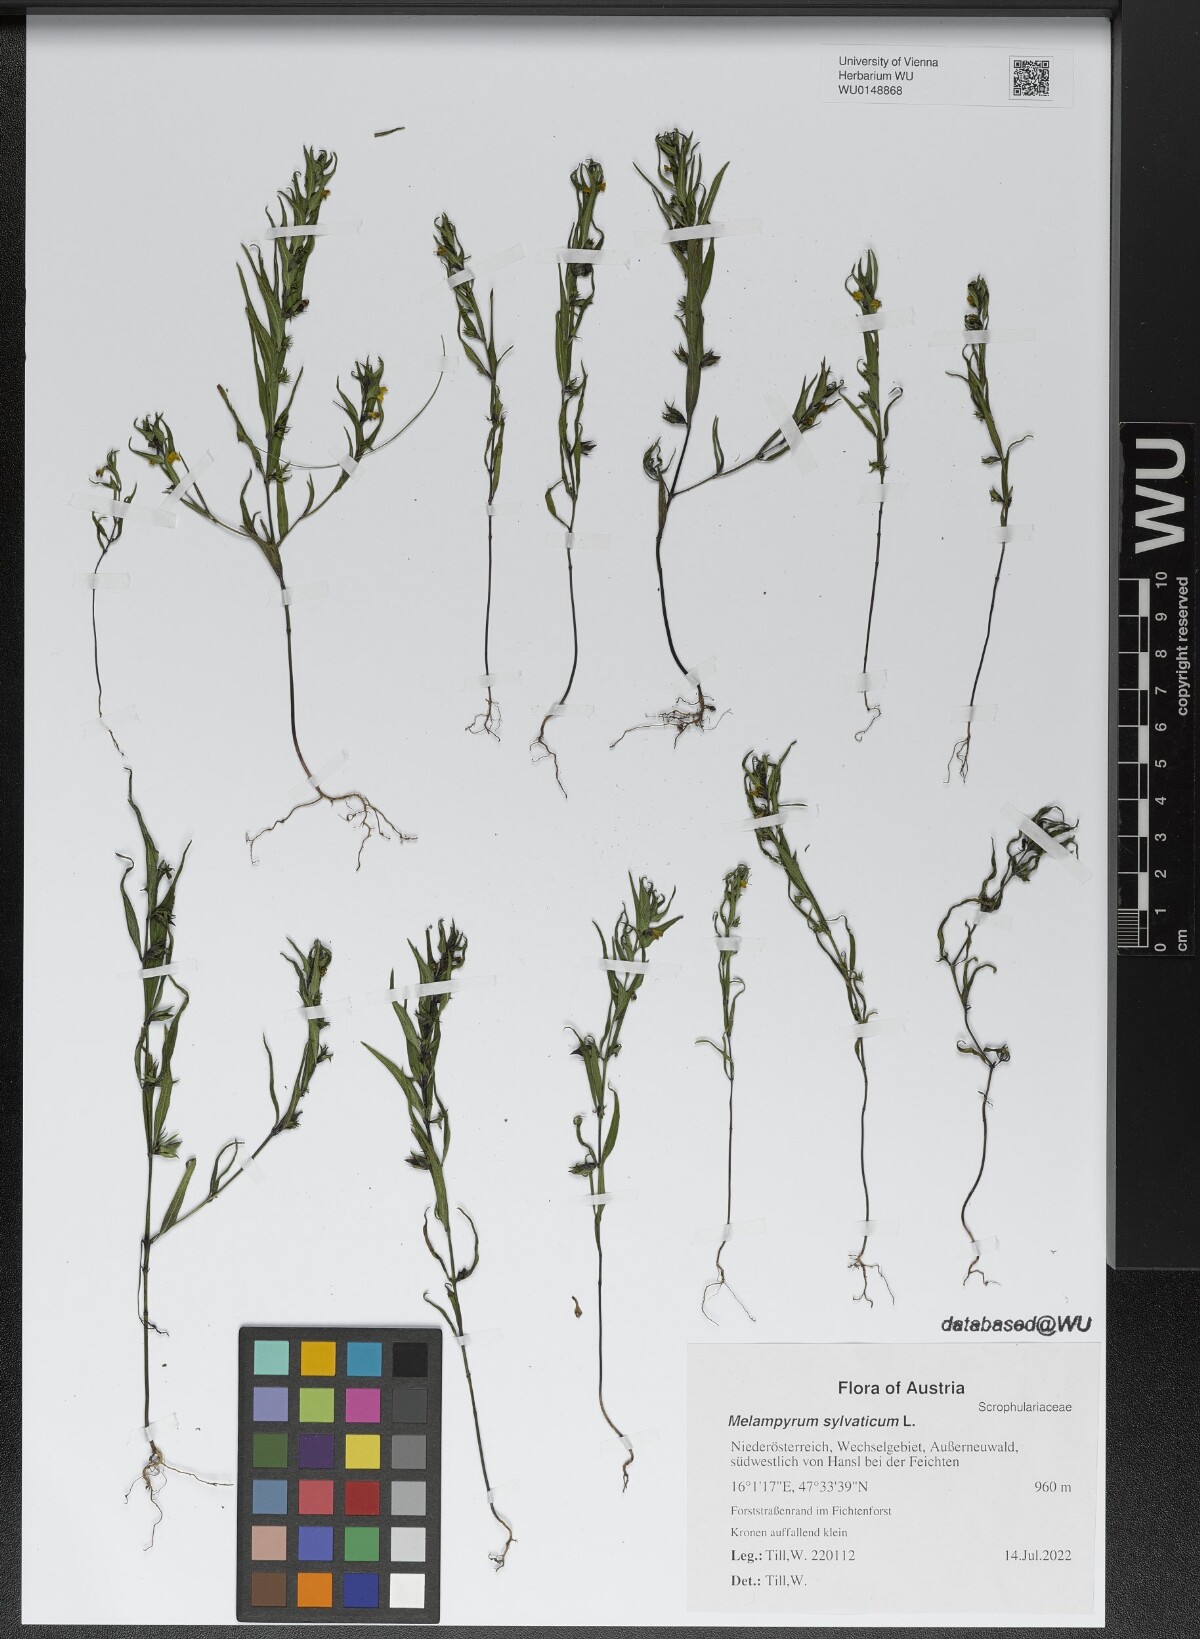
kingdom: Plantae
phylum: Tracheophyta
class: Magnoliopsida
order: Lamiales
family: Orobanchaceae
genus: Melampyrum
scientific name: Melampyrum sylvaticum
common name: Small cow-wheat
